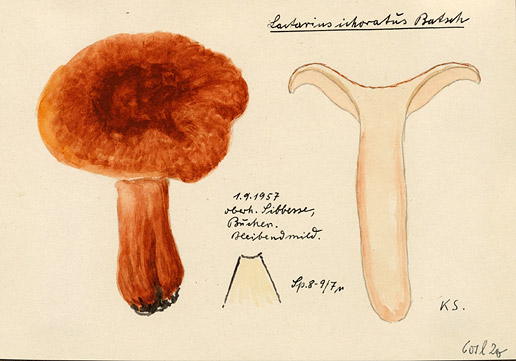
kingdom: Fungi
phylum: Basidiomycota
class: Agaricomycetes
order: Russulales
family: Russulaceae
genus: Lactarius
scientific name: Lactarius fulvissimus
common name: Tawny milkcap
